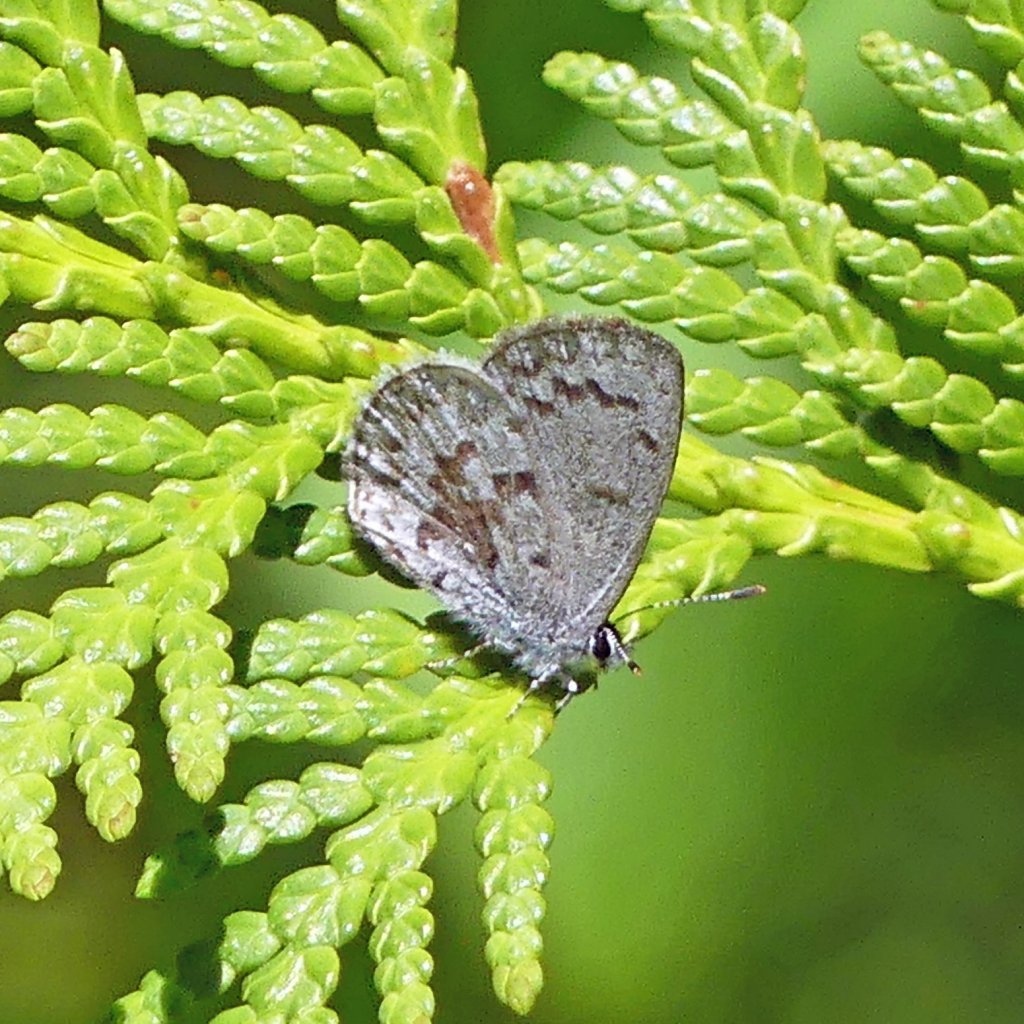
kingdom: Animalia
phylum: Arthropoda
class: Insecta
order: Lepidoptera
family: Lycaenidae
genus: Celastrina
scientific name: Celastrina
